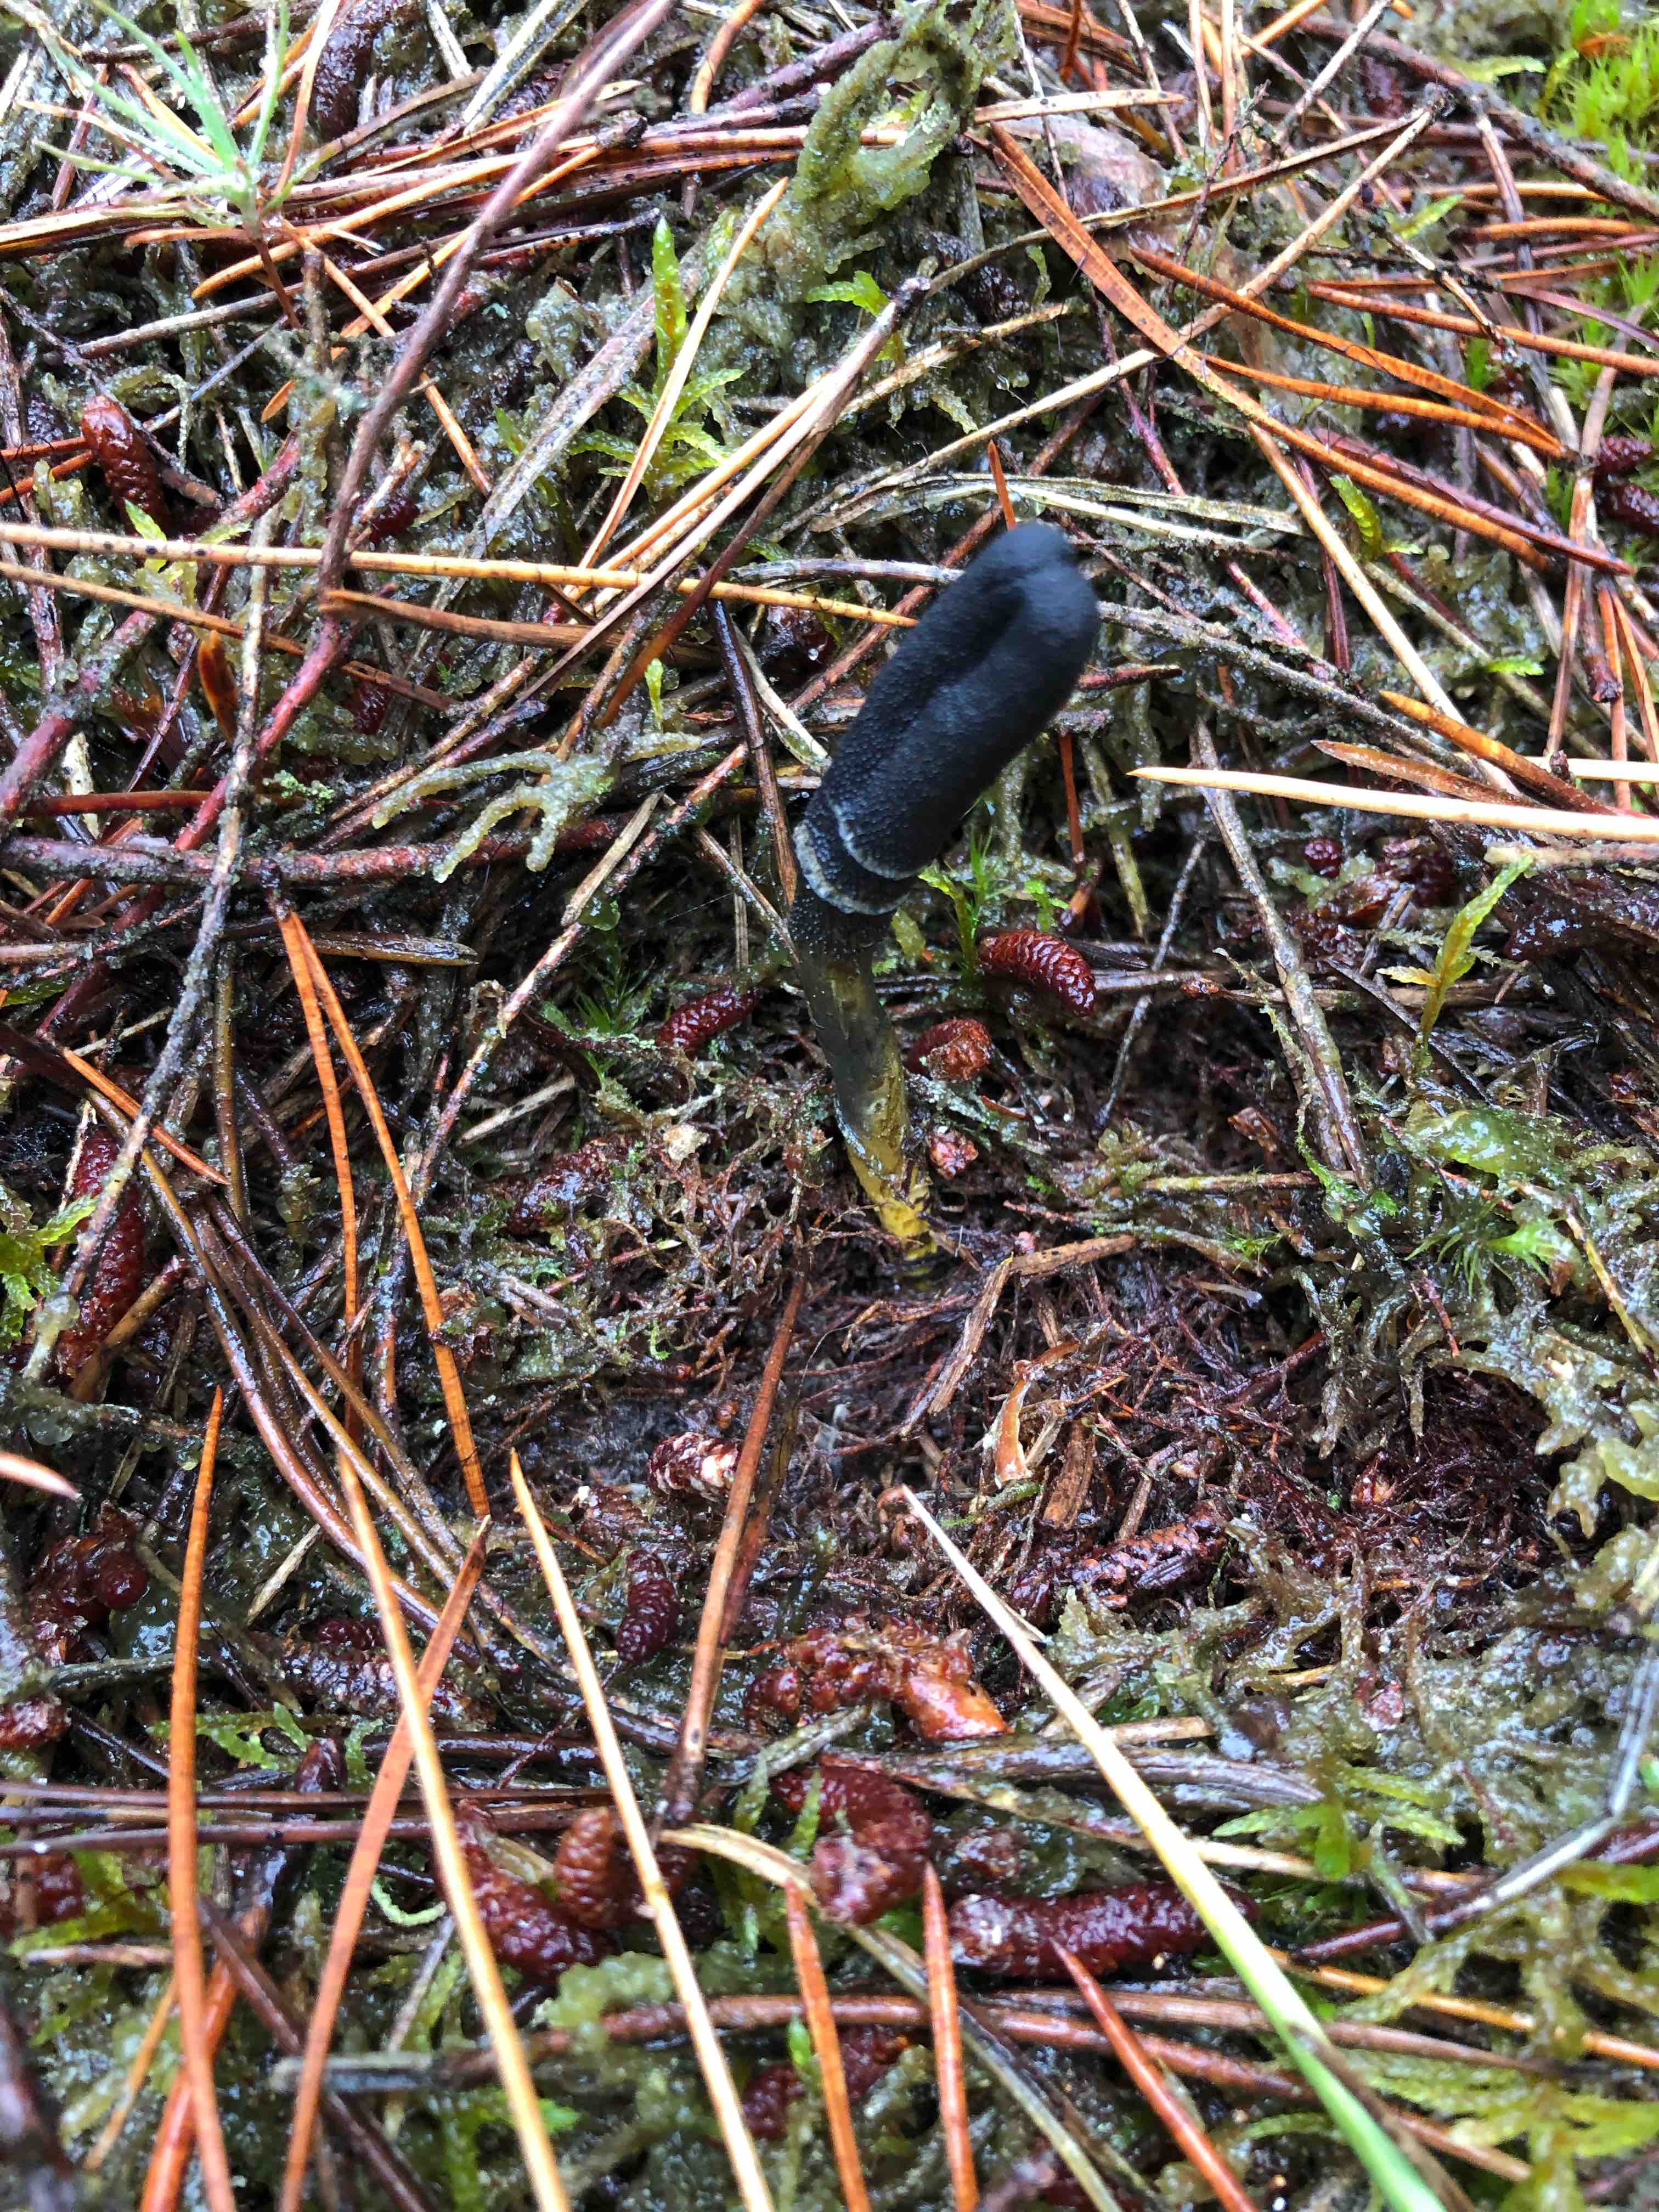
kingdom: Fungi
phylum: Ascomycota
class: Sordariomycetes
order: Hypocreales
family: Ophiocordycipitaceae
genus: Tolypocladium
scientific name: Tolypocladium ophioglossoides
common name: slank snyltekølle
